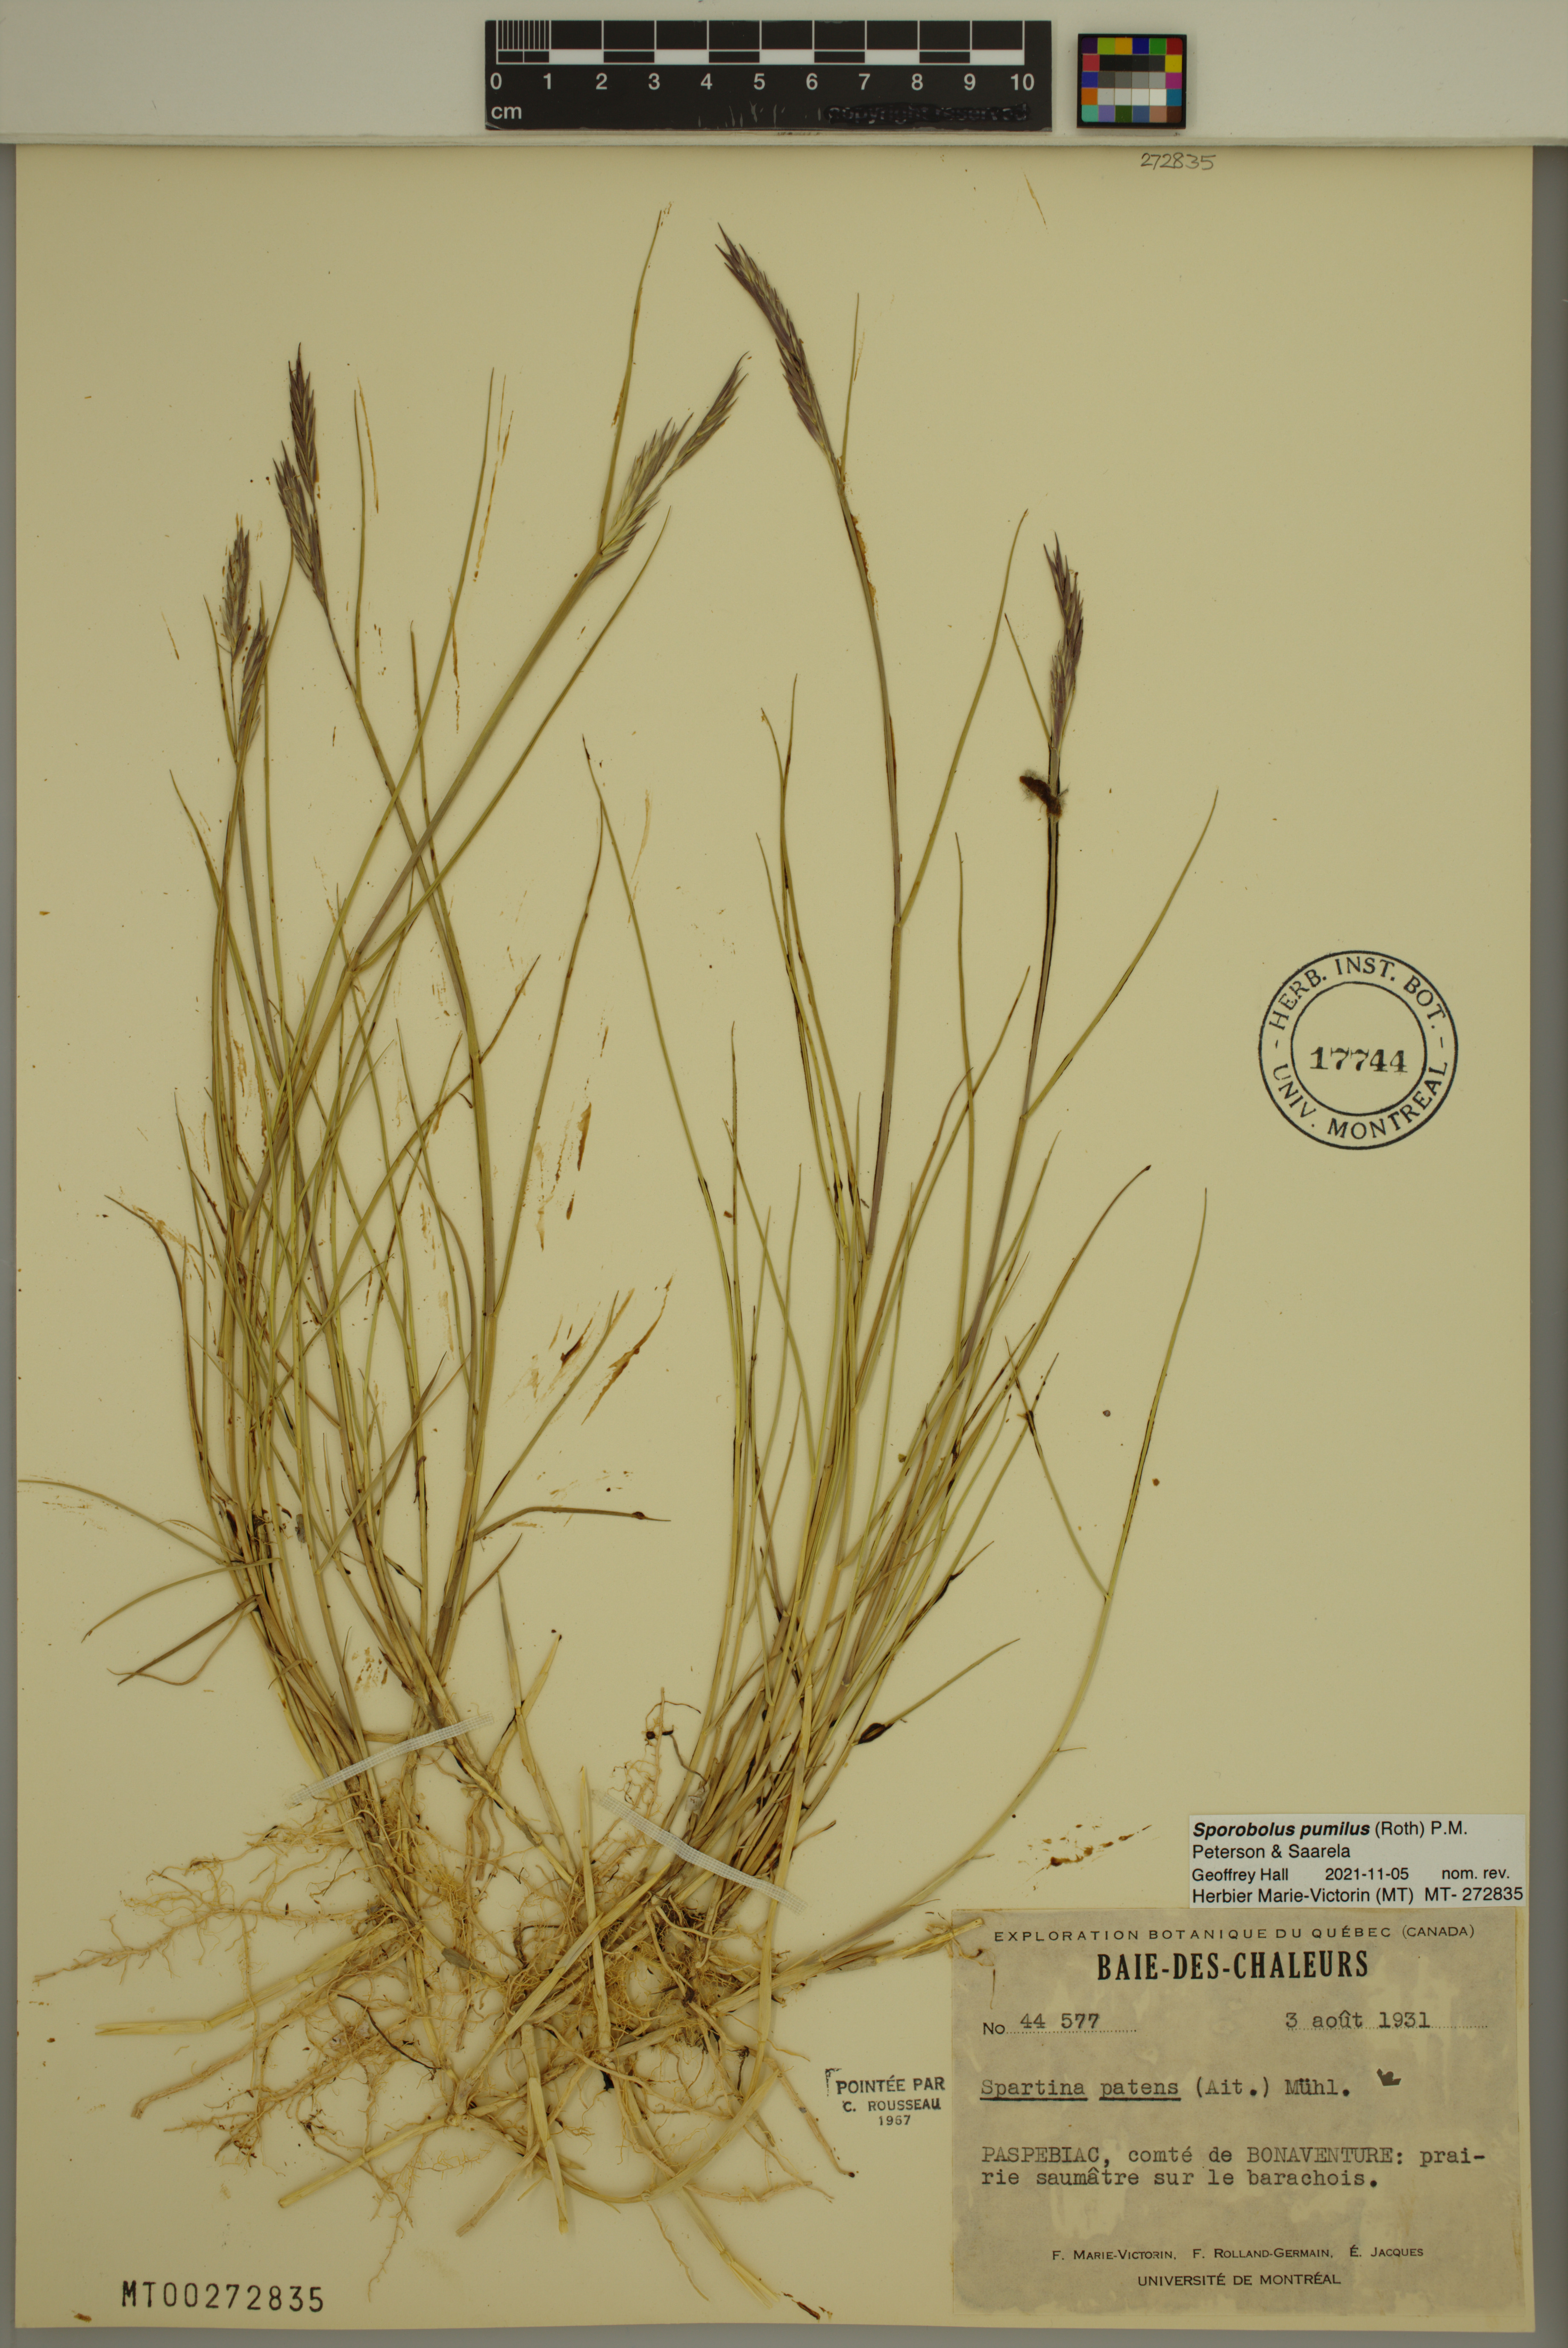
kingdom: Plantae
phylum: Tracheophyta
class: Liliopsida
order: Poales
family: Poaceae
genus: Sporobolus
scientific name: Sporobolus pumilus
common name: Highwater grass
